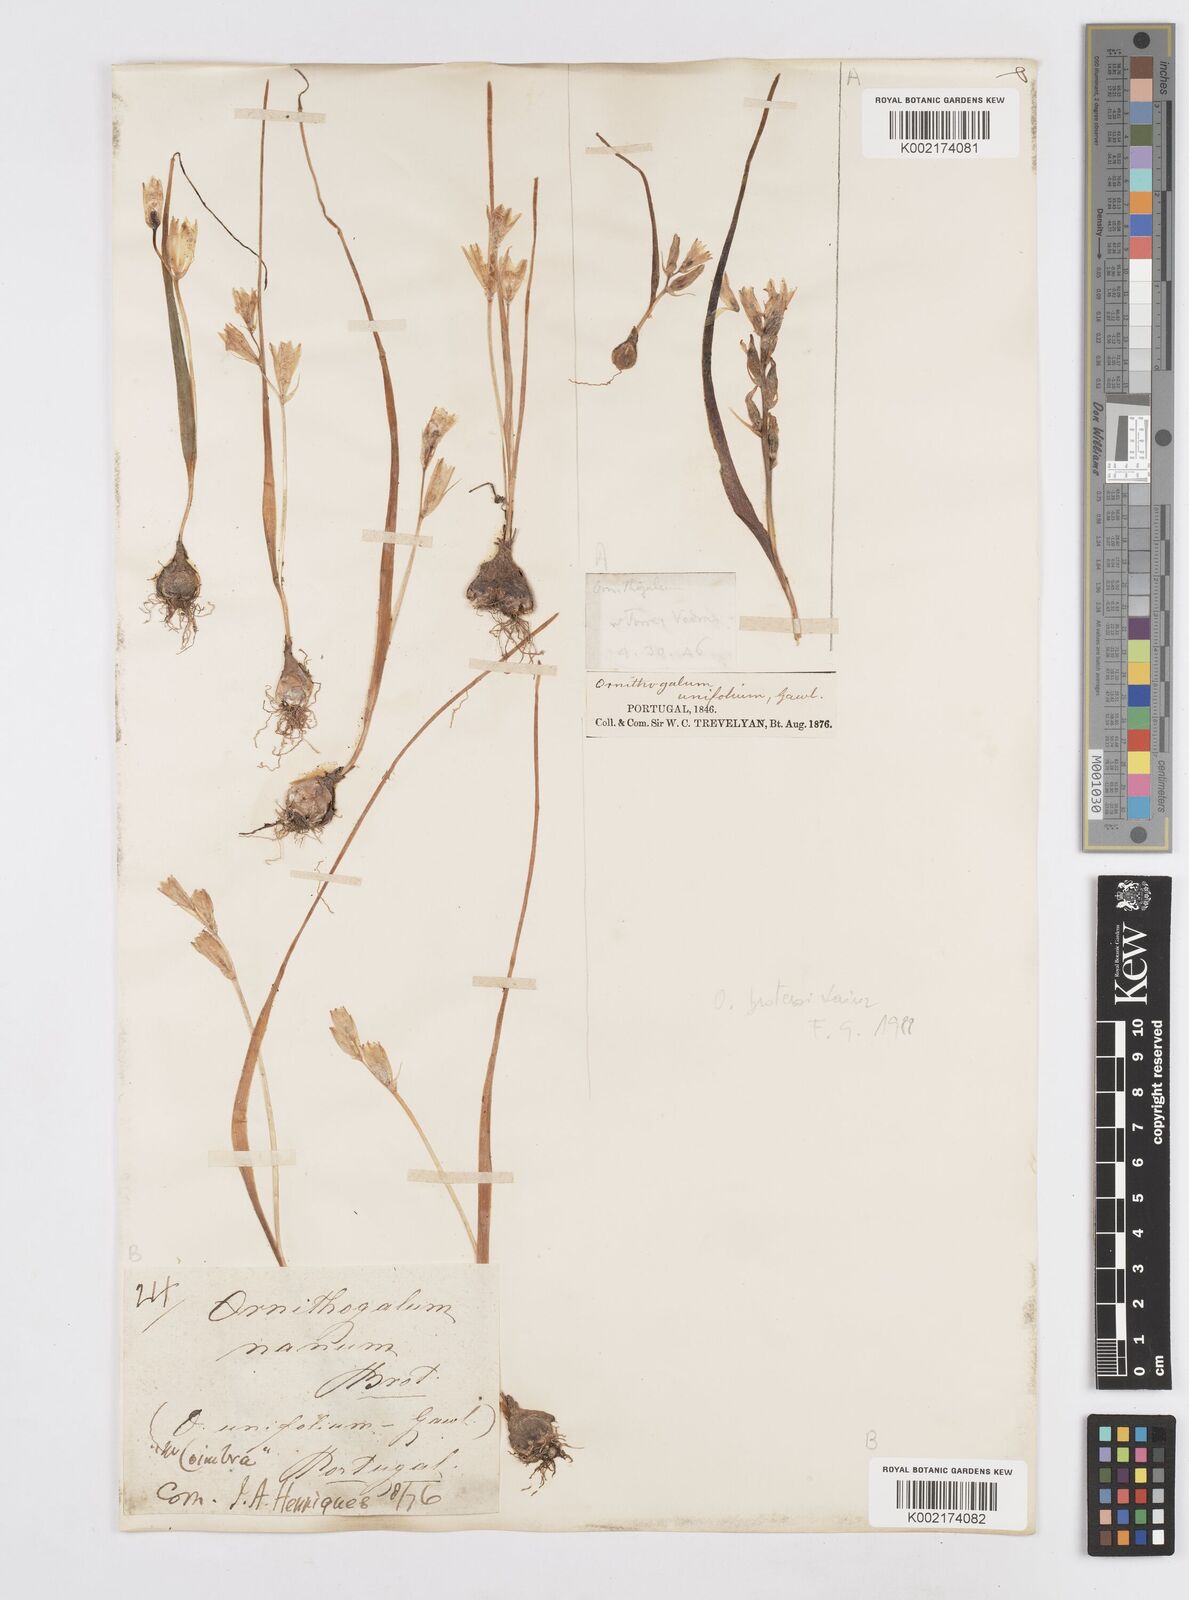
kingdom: Plantae
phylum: Tracheophyta
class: Liliopsida
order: Asparagales
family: Asparagaceae
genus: Ornithogalum
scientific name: Ornithogalum broteroi
